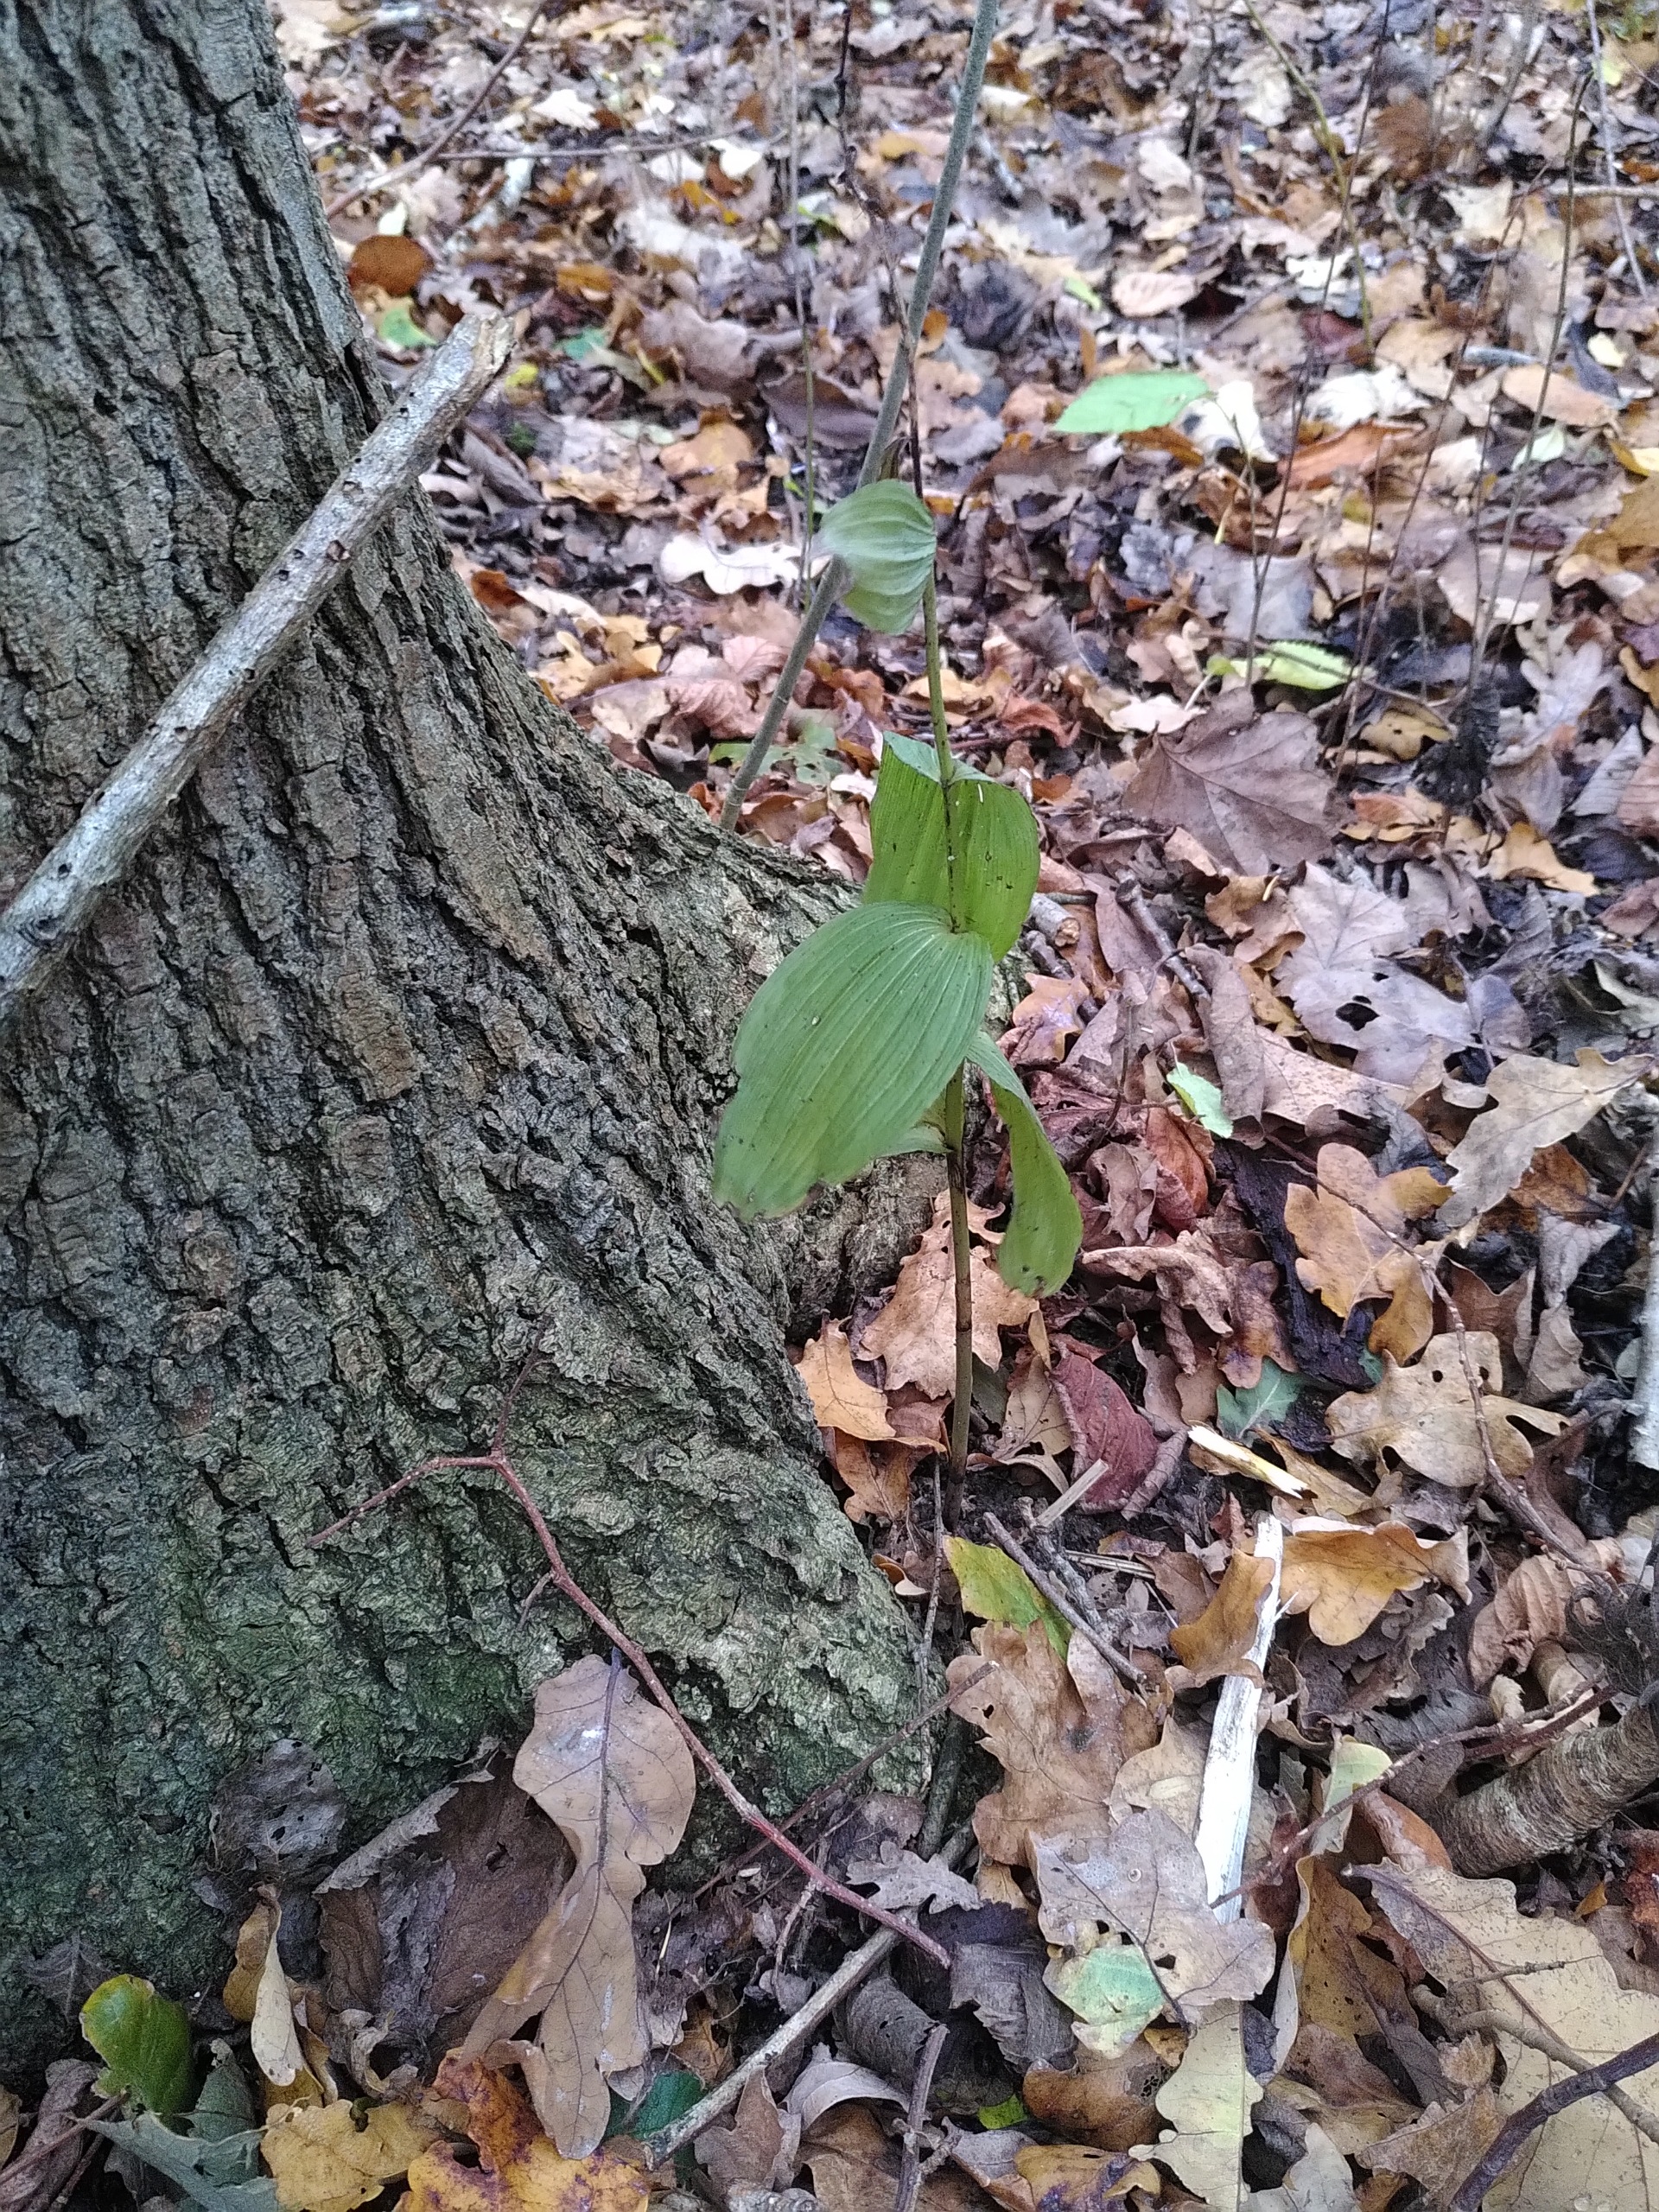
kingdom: Plantae
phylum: Tracheophyta
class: Liliopsida
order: Asparagales
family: Orchidaceae
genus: Epipactis
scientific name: Epipactis helleborine
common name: Skov-hullæbe
